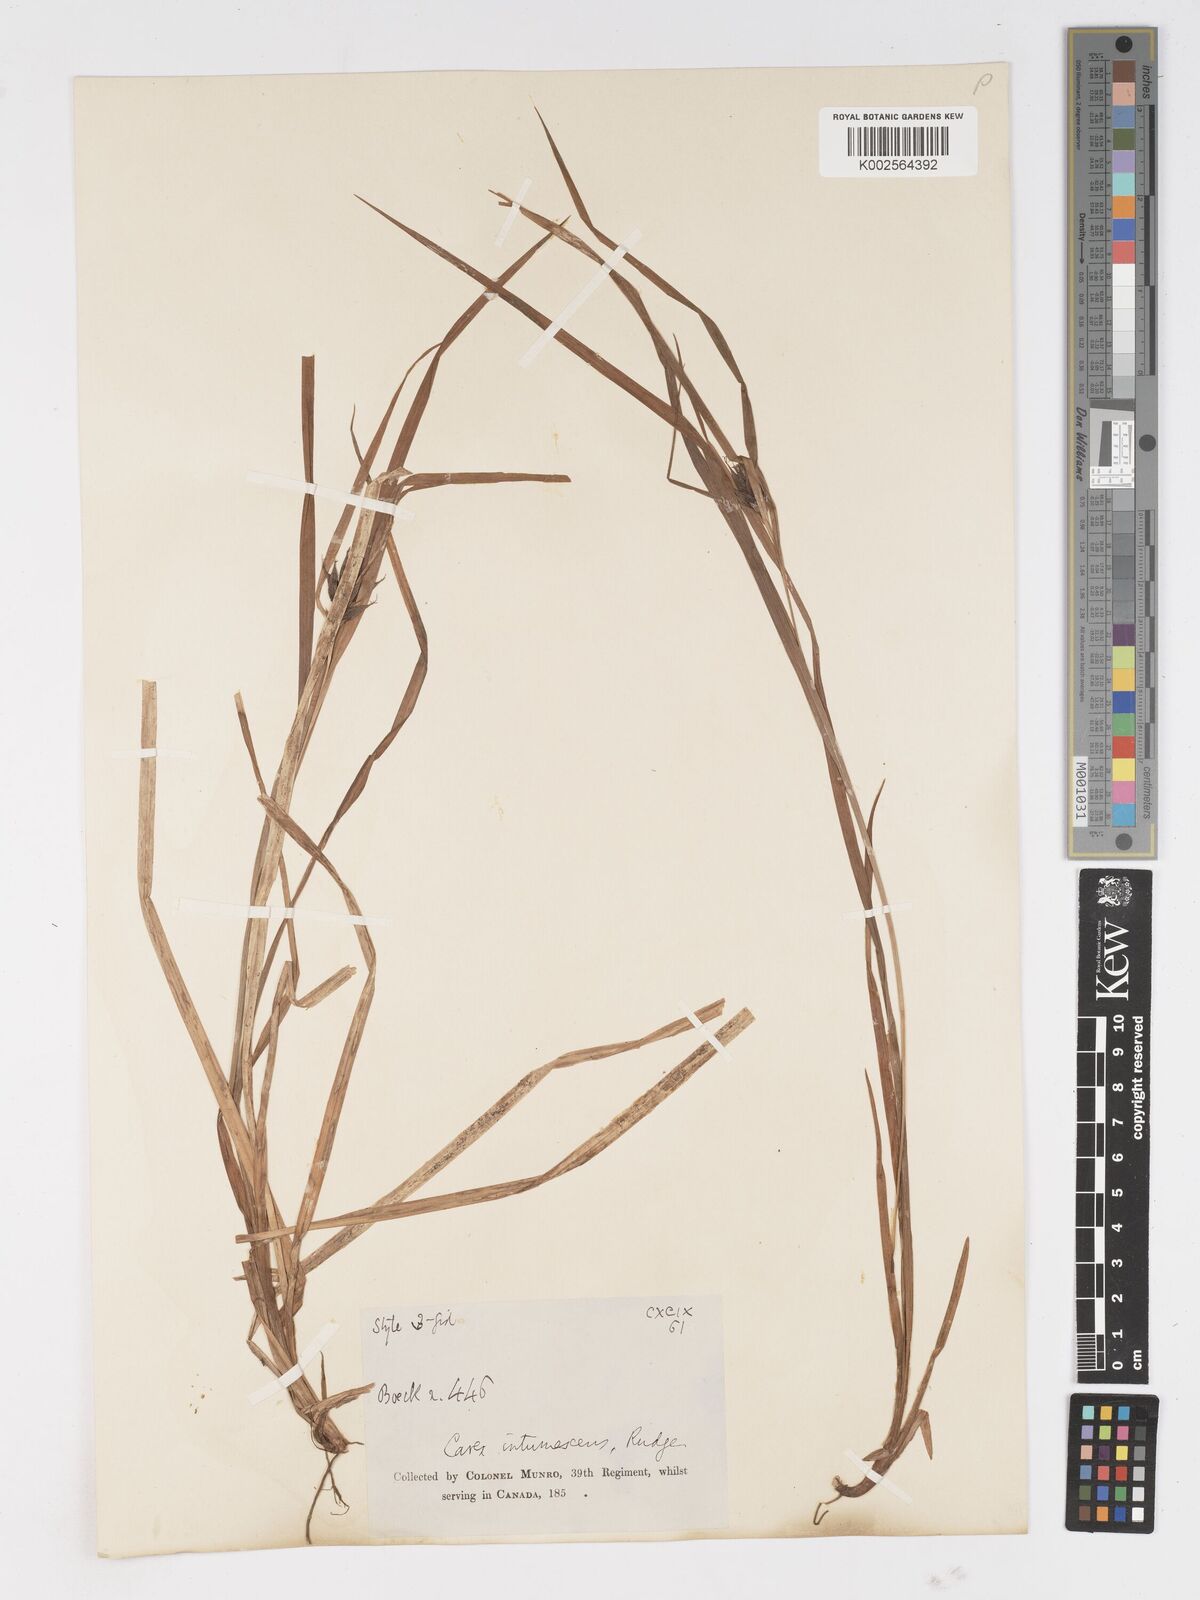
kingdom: Plantae
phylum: Tracheophyta
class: Liliopsida
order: Poales
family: Cyperaceae
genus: Carex
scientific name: Carex intumescens
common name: Greater bladder sedge
